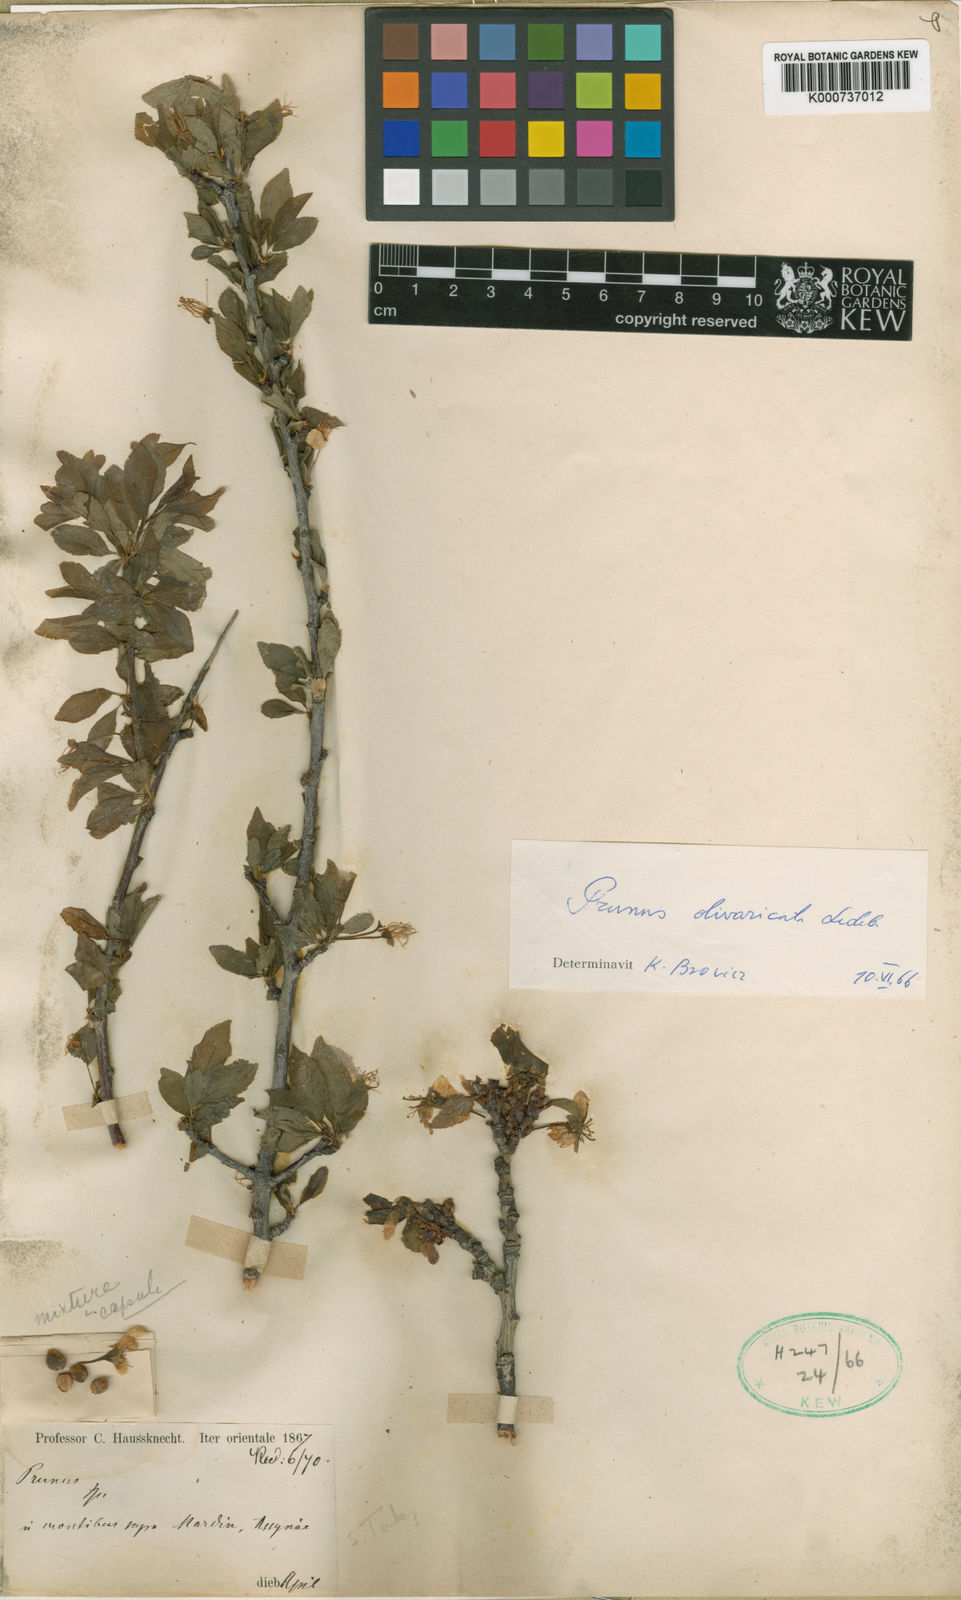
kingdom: Plantae
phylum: Tracheophyta
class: Magnoliopsida
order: Rosales
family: Rosaceae
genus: Prunus
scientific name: Prunus cyathicalyx
